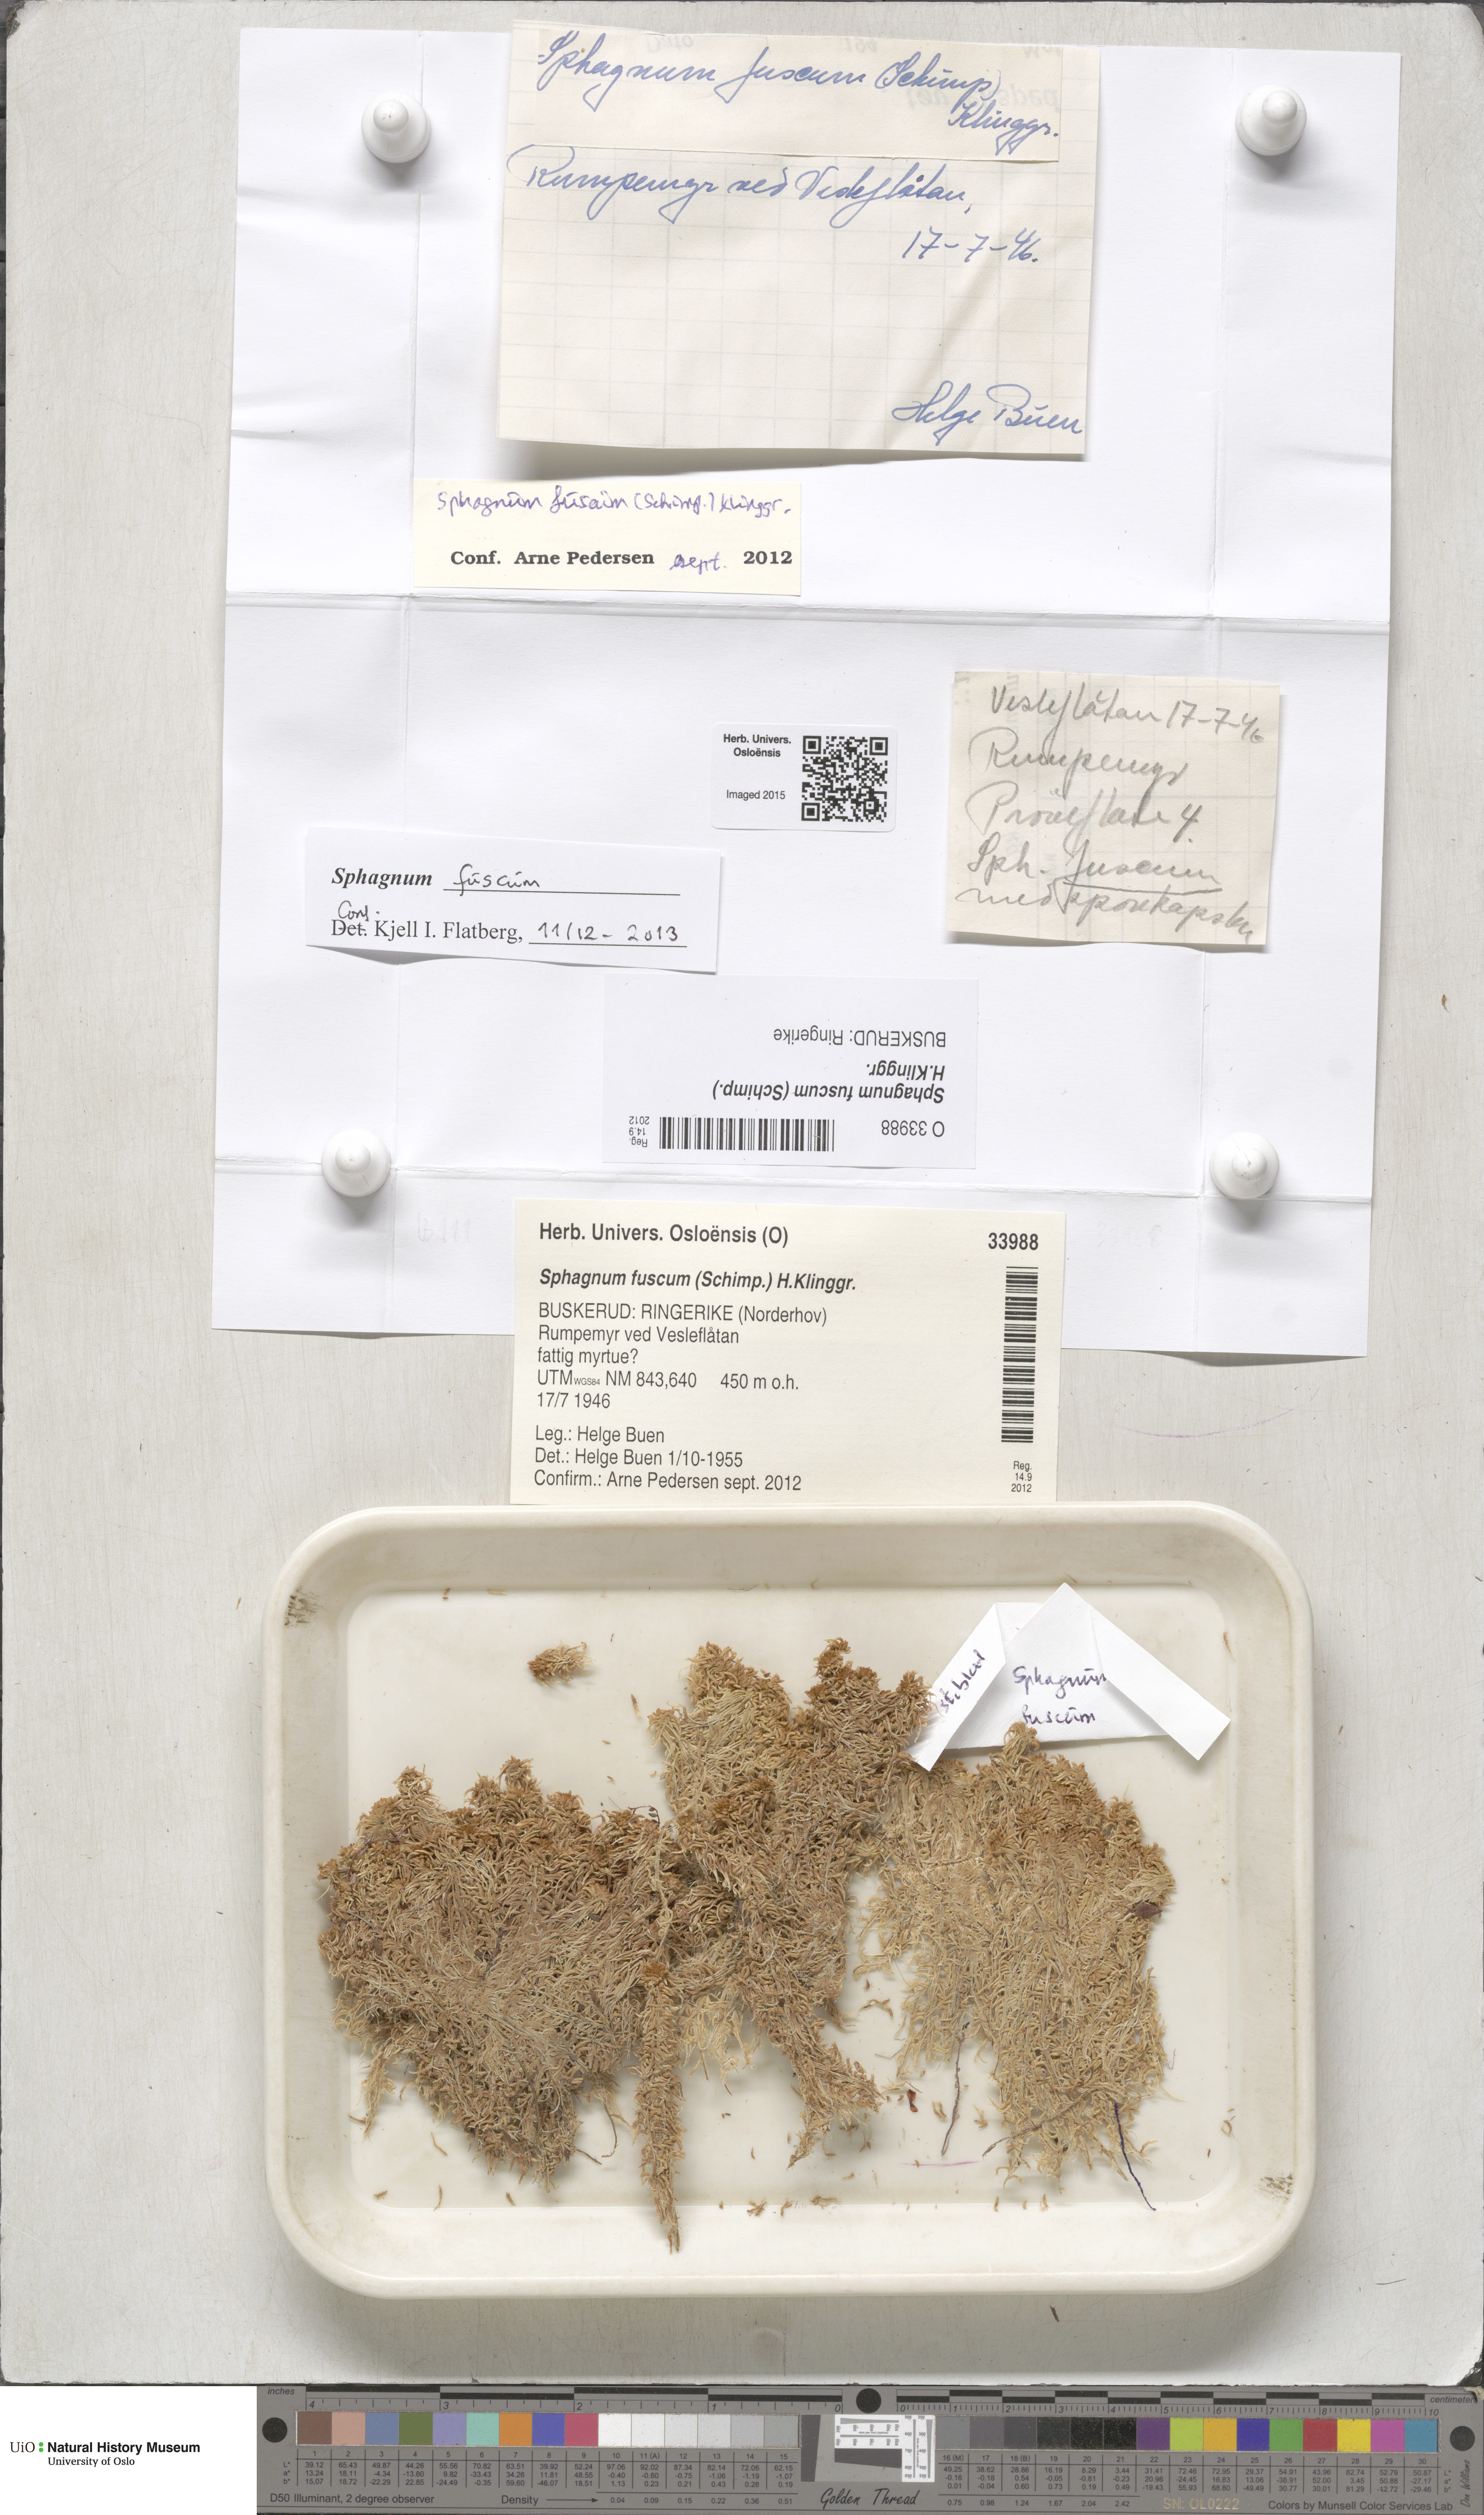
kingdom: Plantae
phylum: Bryophyta
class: Sphagnopsida
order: Sphagnales
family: Sphagnaceae
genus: Sphagnum
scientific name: Sphagnum fuscum
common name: Brown peat moss
